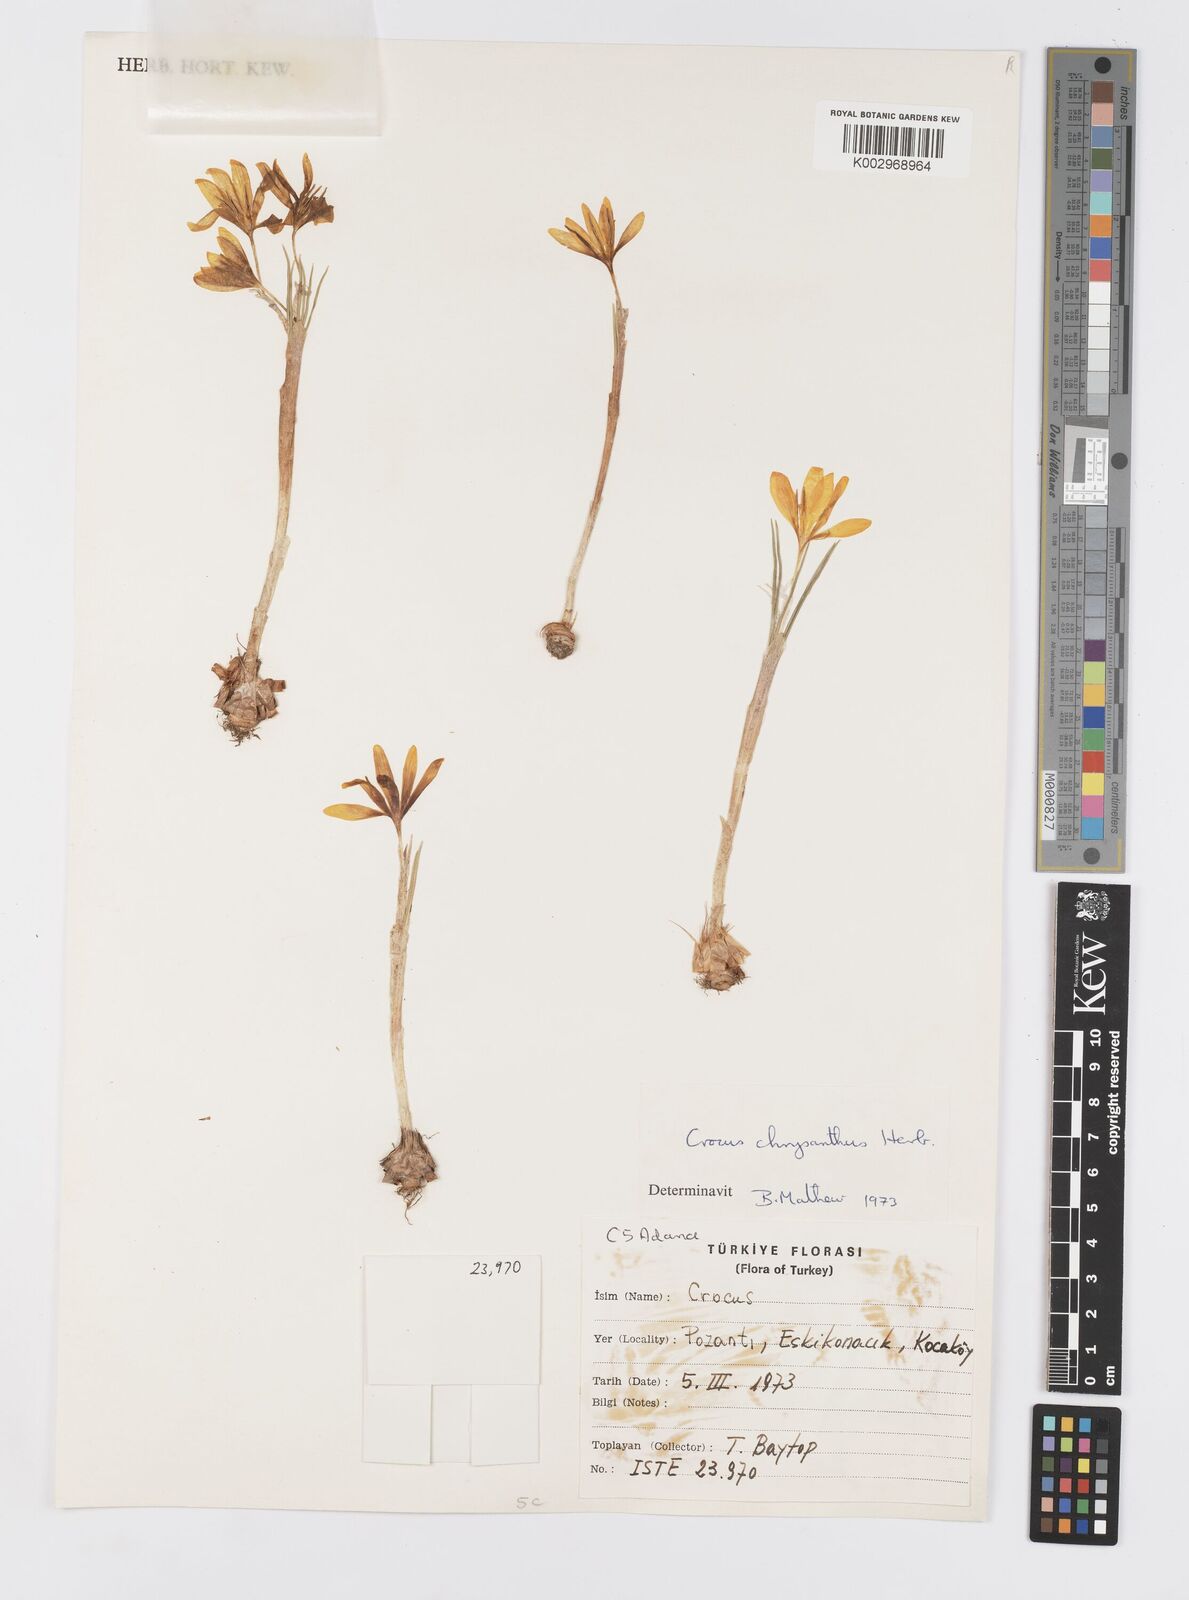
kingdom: Plantae
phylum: Tracheophyta
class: Liliopsida
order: Asparagales
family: Iridaceae
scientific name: Iridaceae
